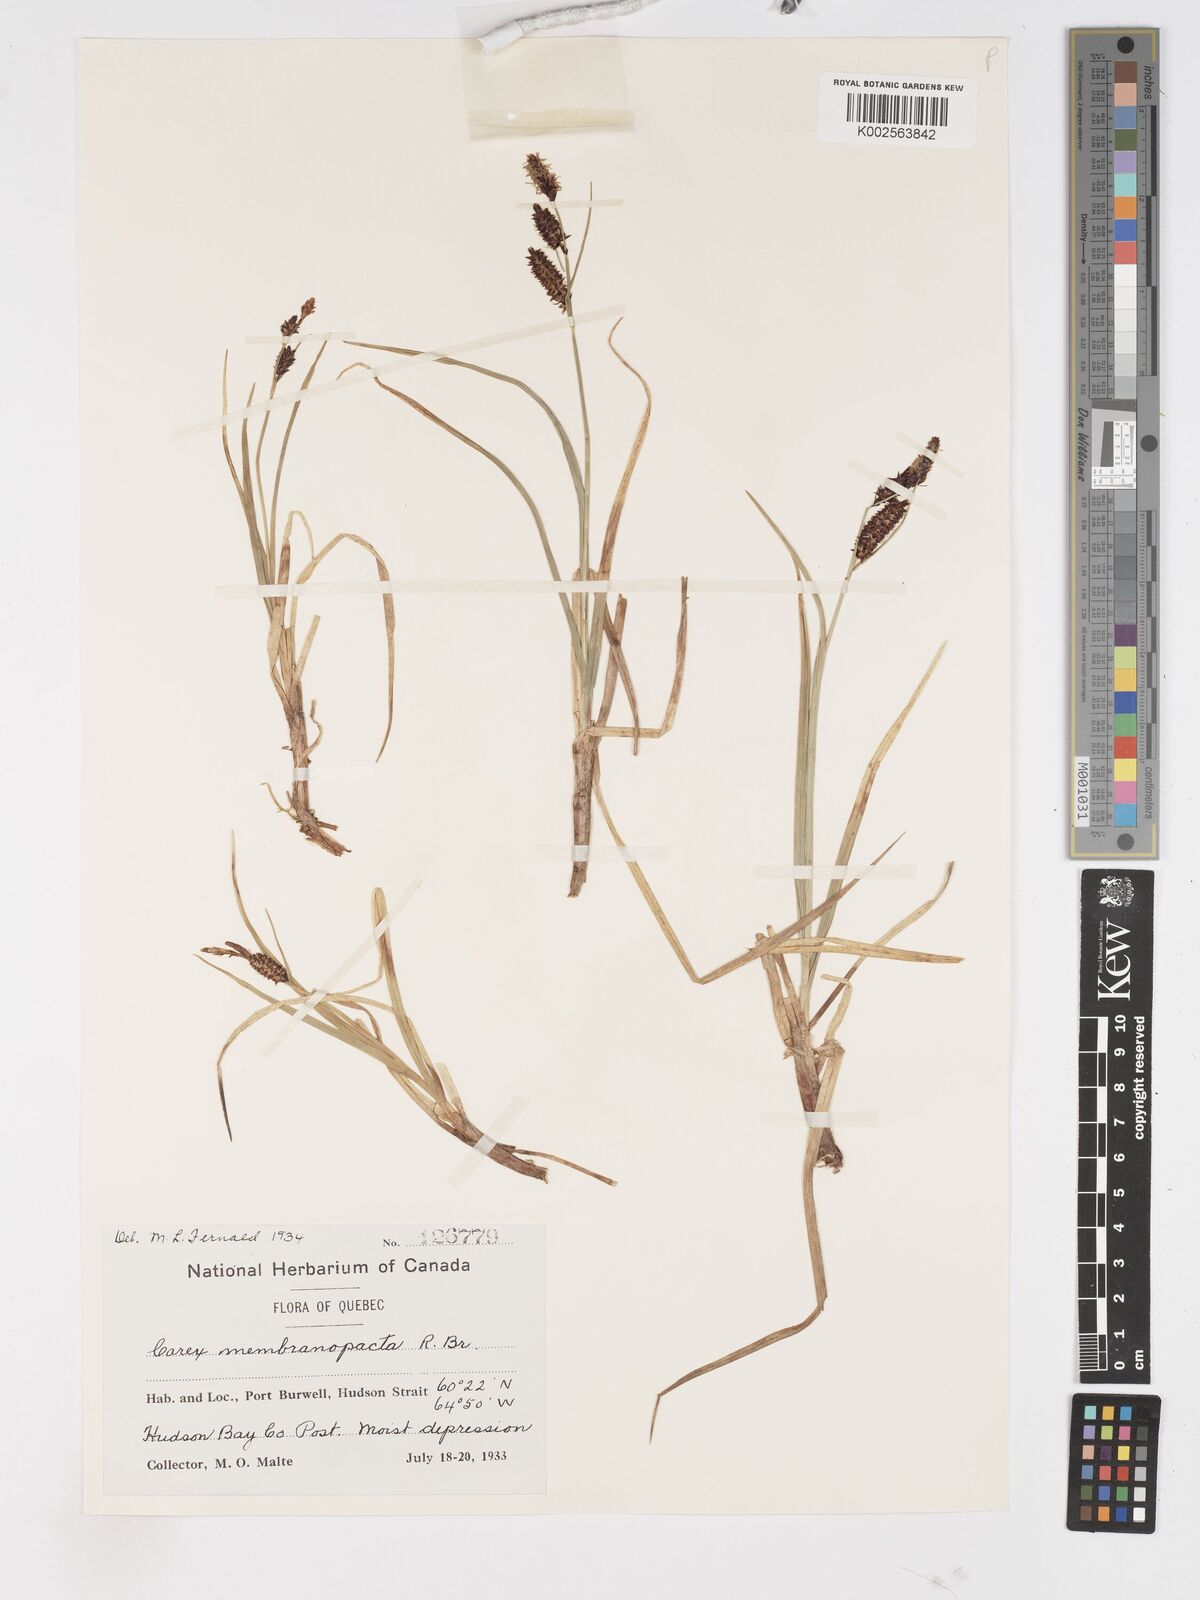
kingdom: Plantae
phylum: Tracheophyta
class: Liliopsida
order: Poales
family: Cyperaceae
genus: Carex
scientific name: Carex membranacea
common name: Fragile sedge
